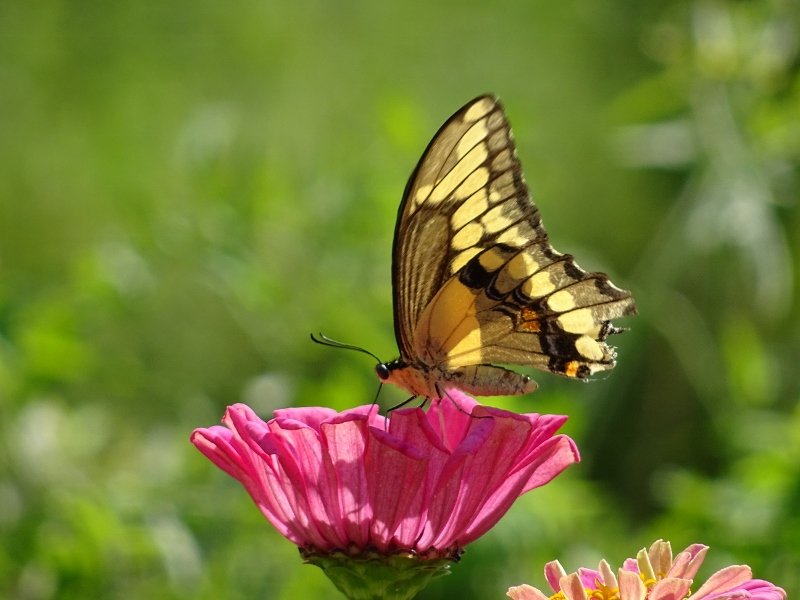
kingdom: Animalia
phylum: Arthropoda
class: Insecta
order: Lepidoptera
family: Papilionidae
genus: Papilio
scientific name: Papilio cresphontes
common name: Eastern Giant Swallowtail
